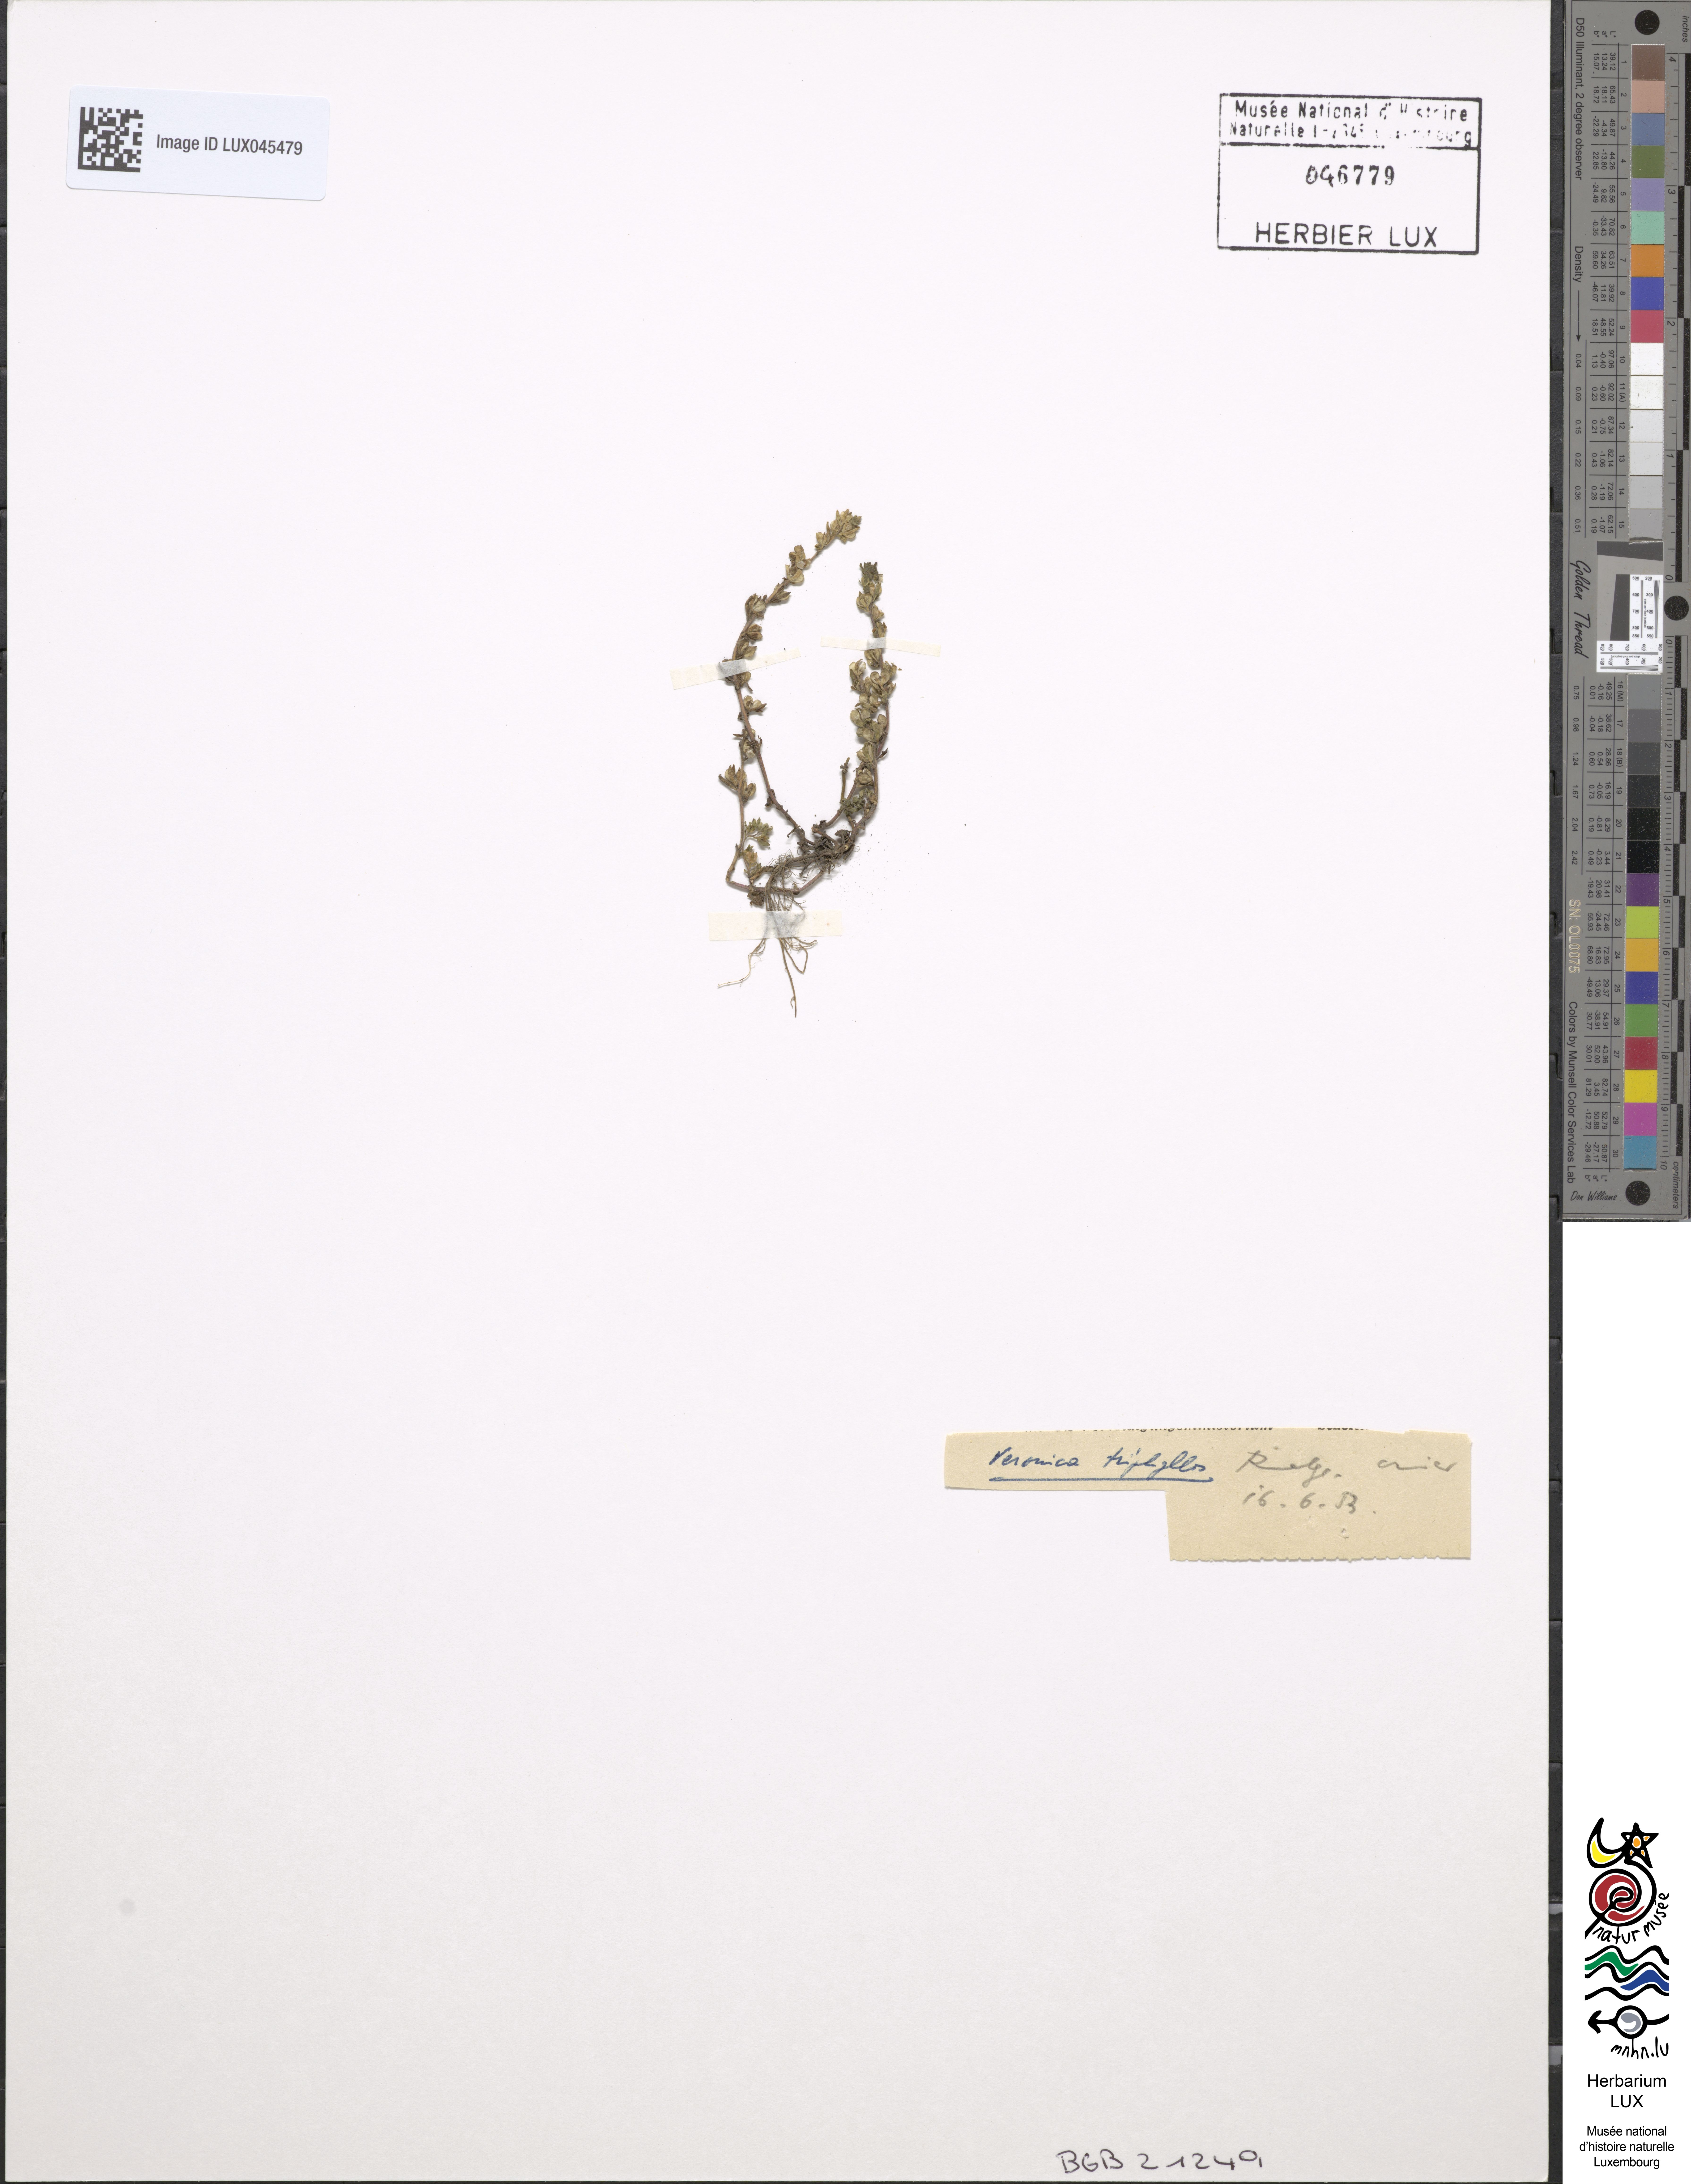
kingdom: Plantae
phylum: Tracheophyta
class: Magnoliopsida
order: Lamiales
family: Plantaginaceae
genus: Veronica
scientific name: Veronica triphyllos
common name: Fingered speedwell
